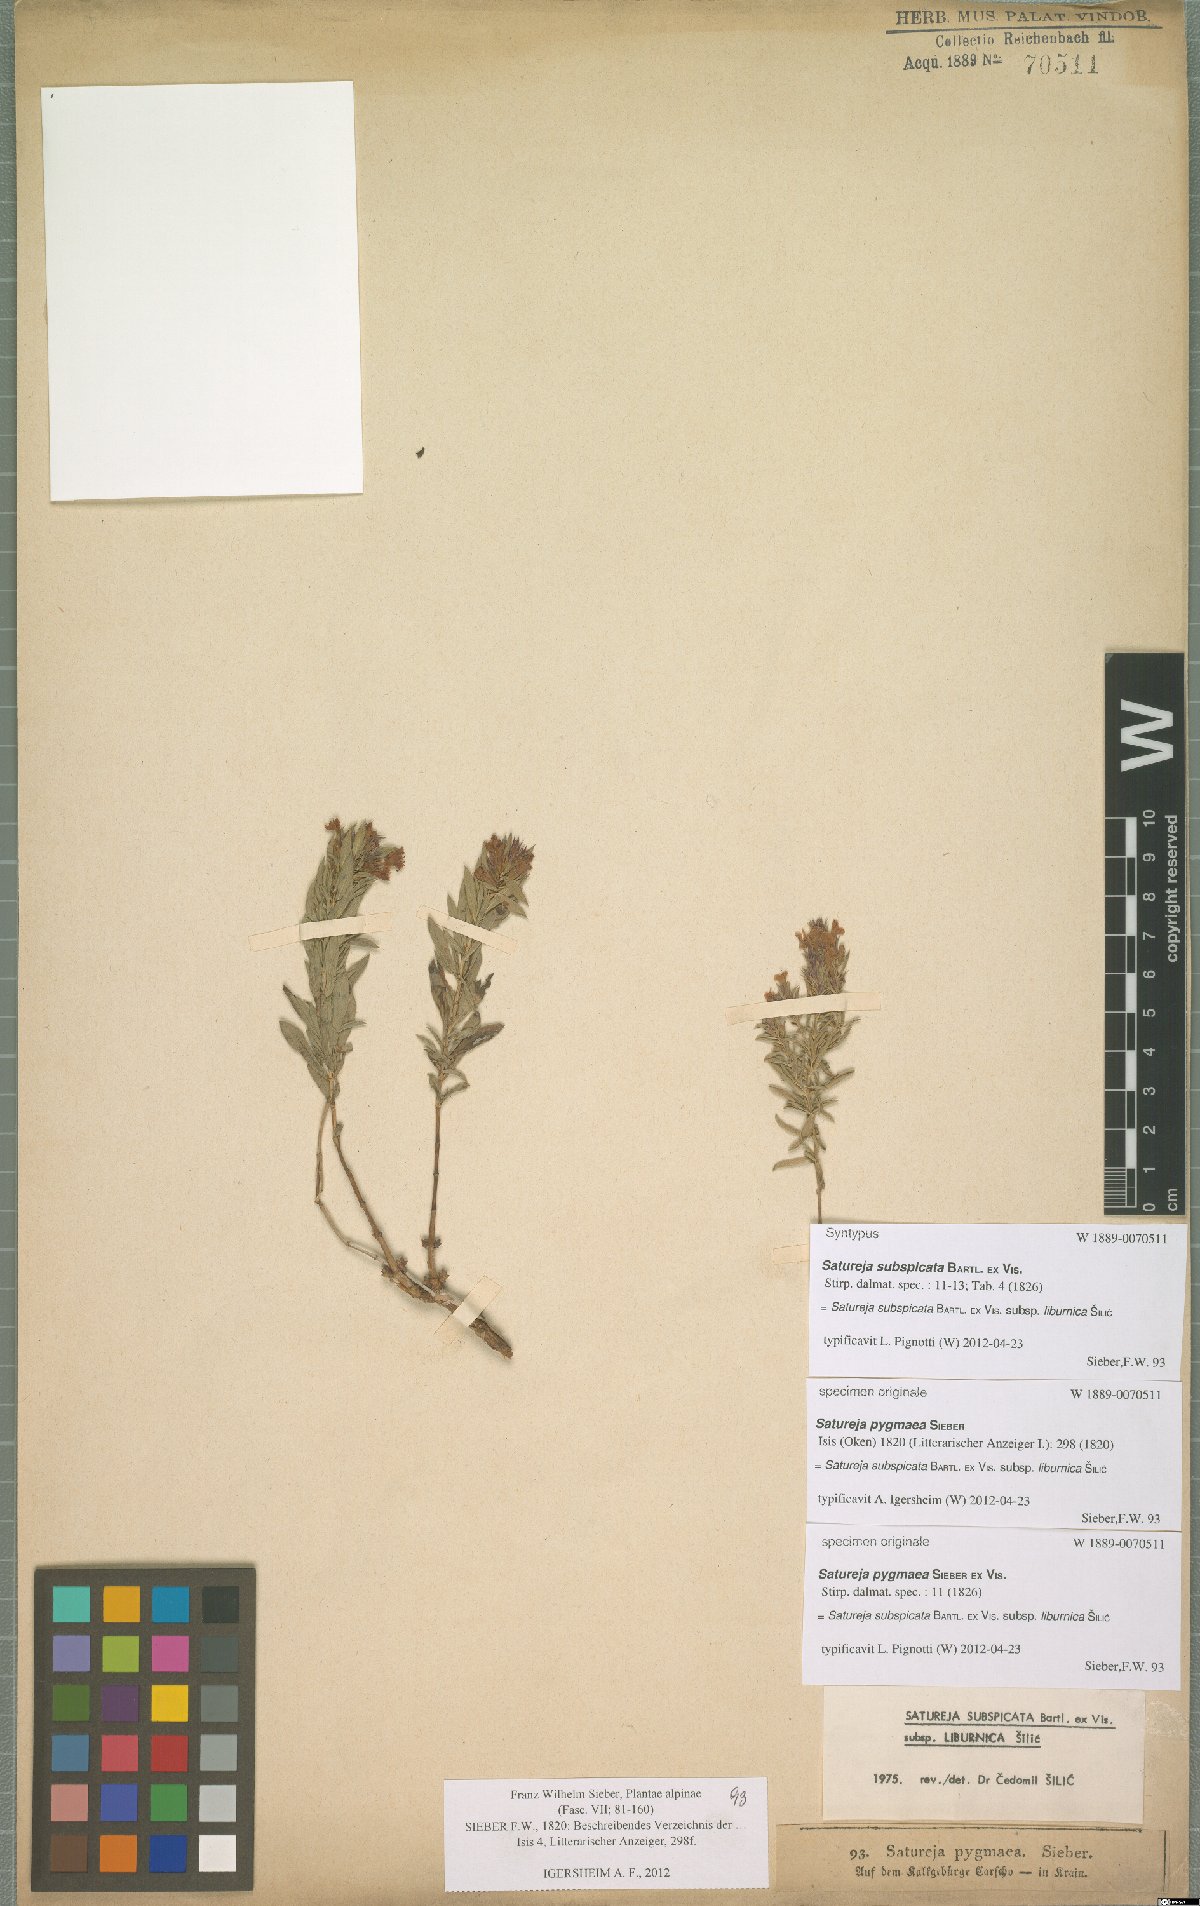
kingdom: Plantae
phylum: Tracheophyta
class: Magnoliopsida
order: Lamiales
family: Lamiaceae
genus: Satureja
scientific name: Satureja subspicata
